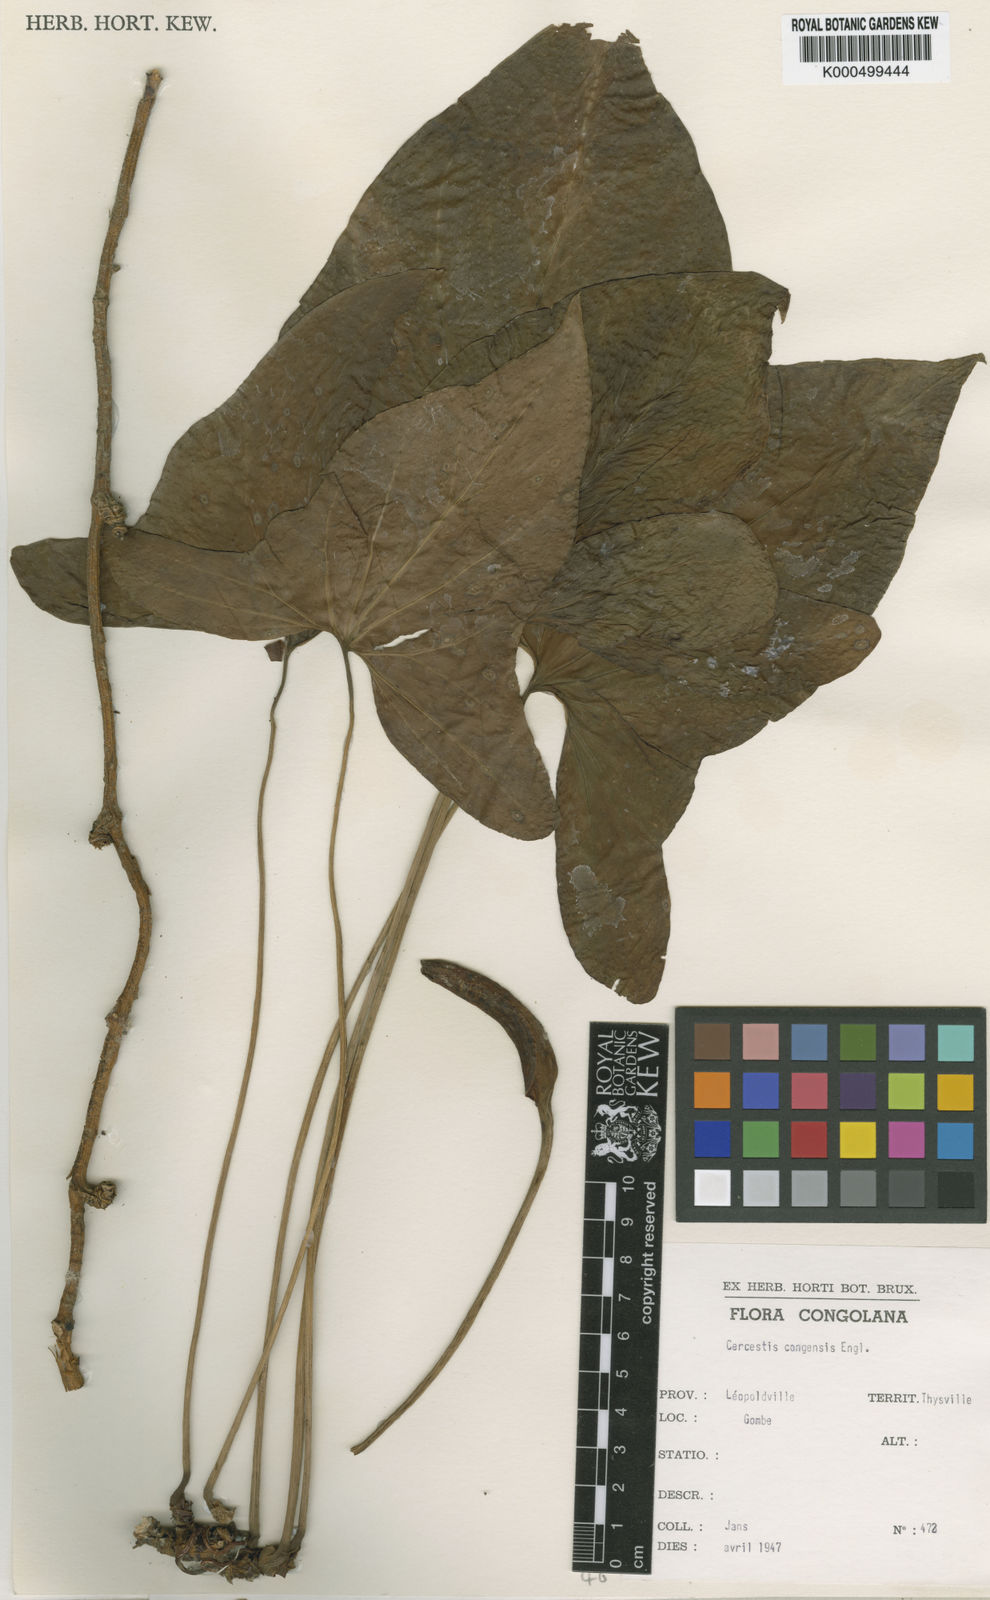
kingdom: Plantae
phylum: Tracheophyta
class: Liliopsida
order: Alismatales
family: Araceae
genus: Cercestis
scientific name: Cercestis
